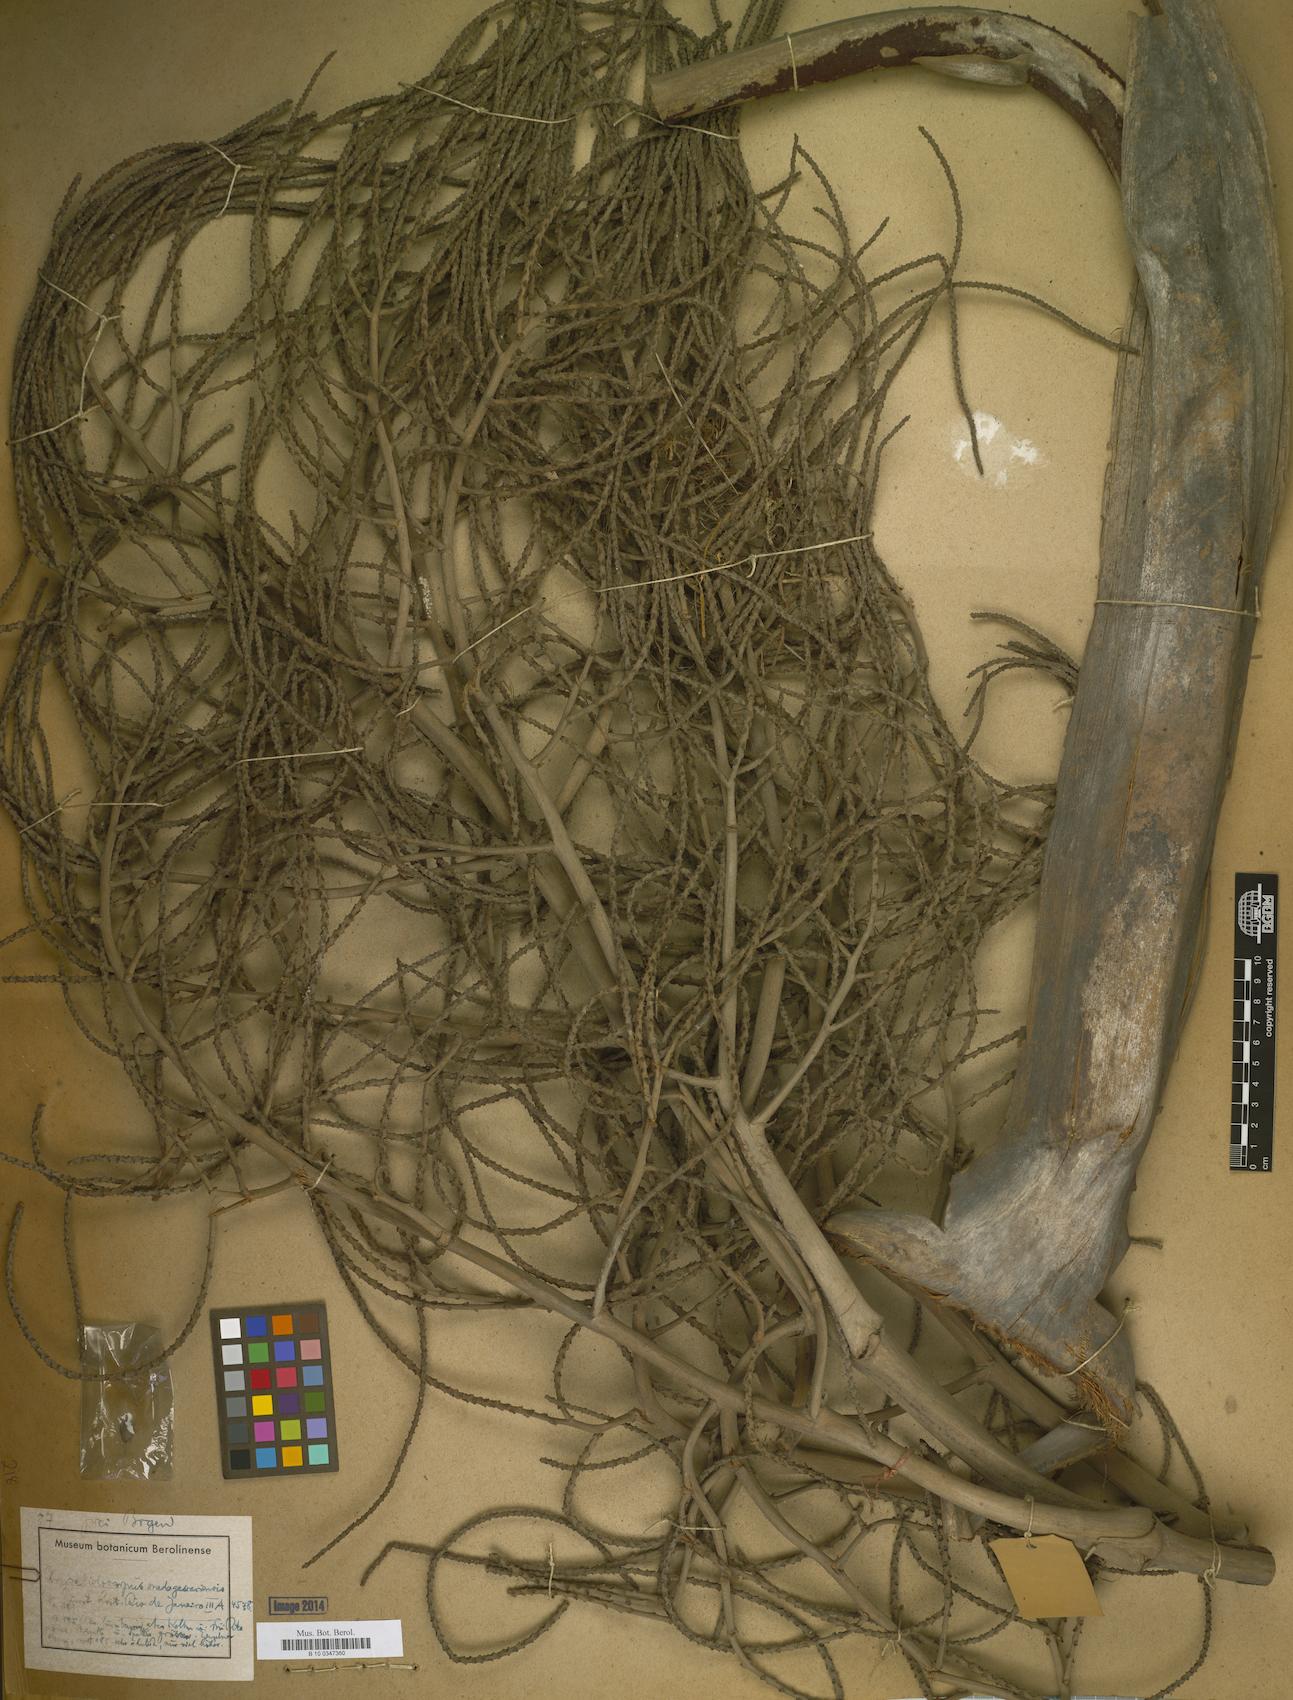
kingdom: Plantae
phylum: Tracheophyta
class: Liliopsida
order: Arecales
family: Arecaceae
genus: Dypsis
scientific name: Dypsis madagascariensis
